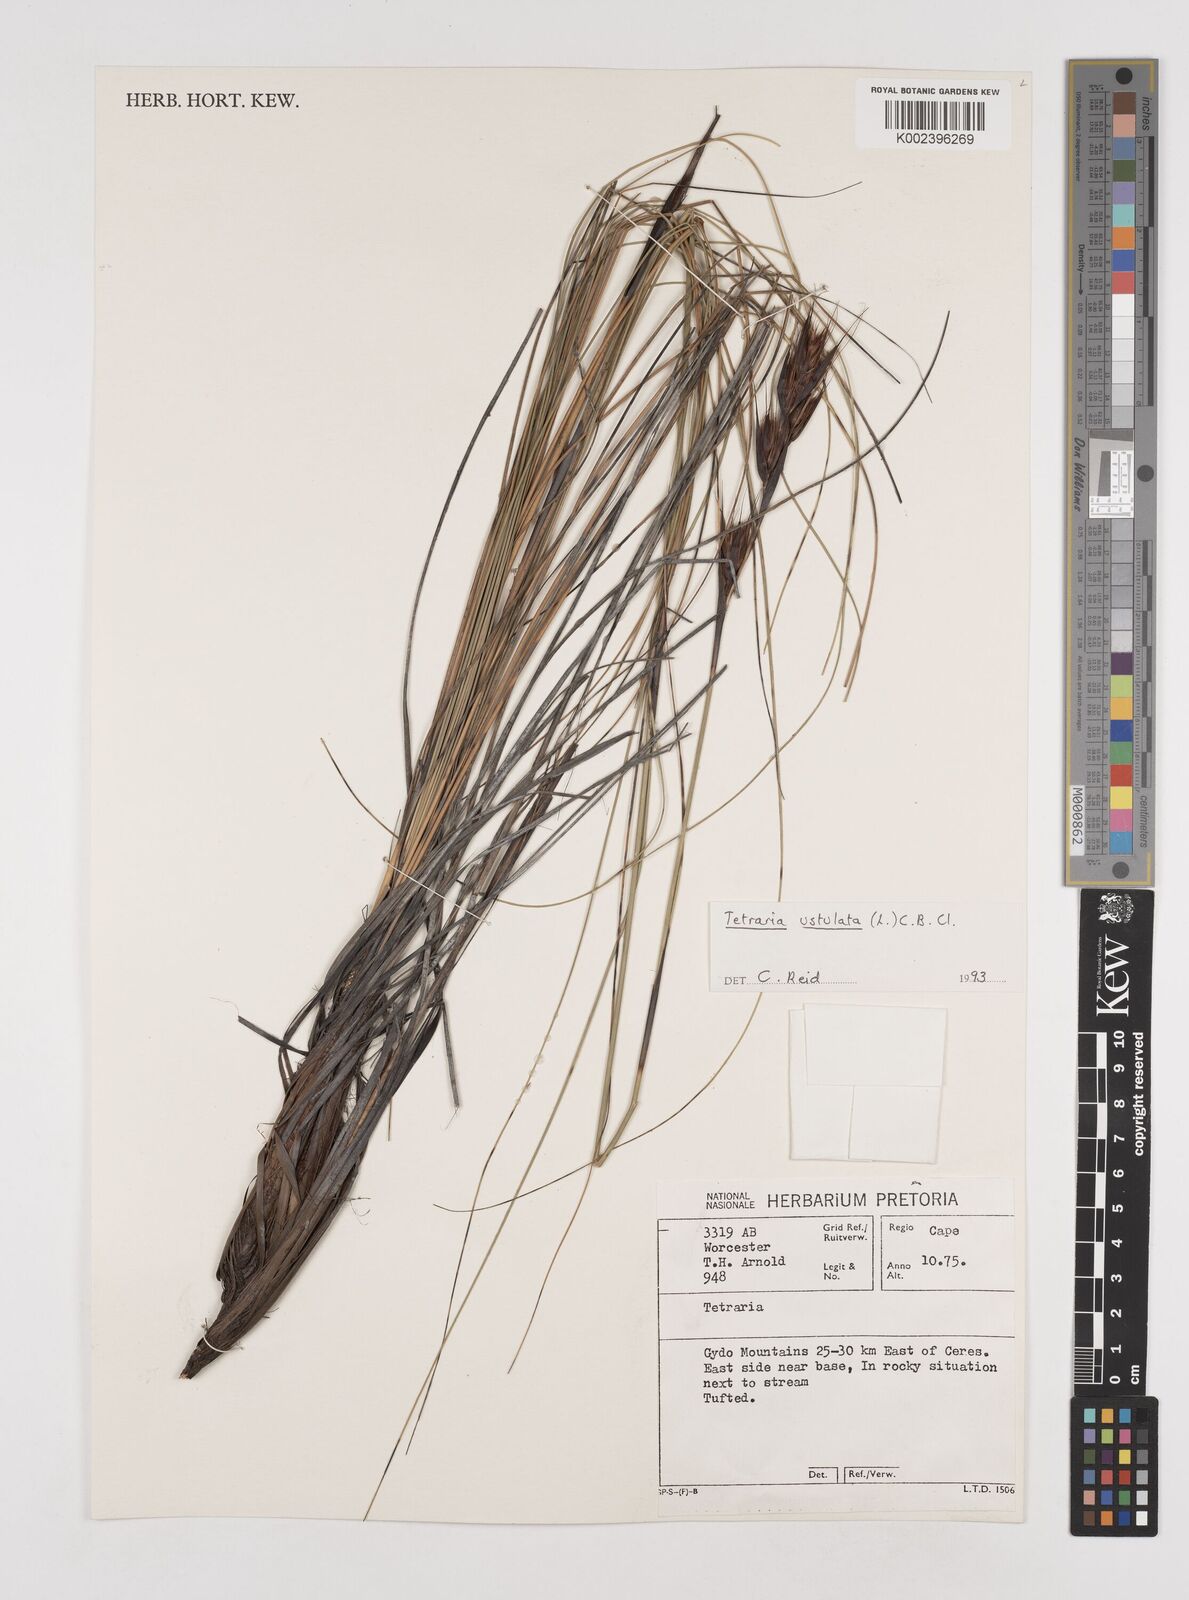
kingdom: Plantae
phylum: Tracheophyta
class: Liliopsida
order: Poales
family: Cyperaceae
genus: Tetraria
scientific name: Tetraria ustulata
